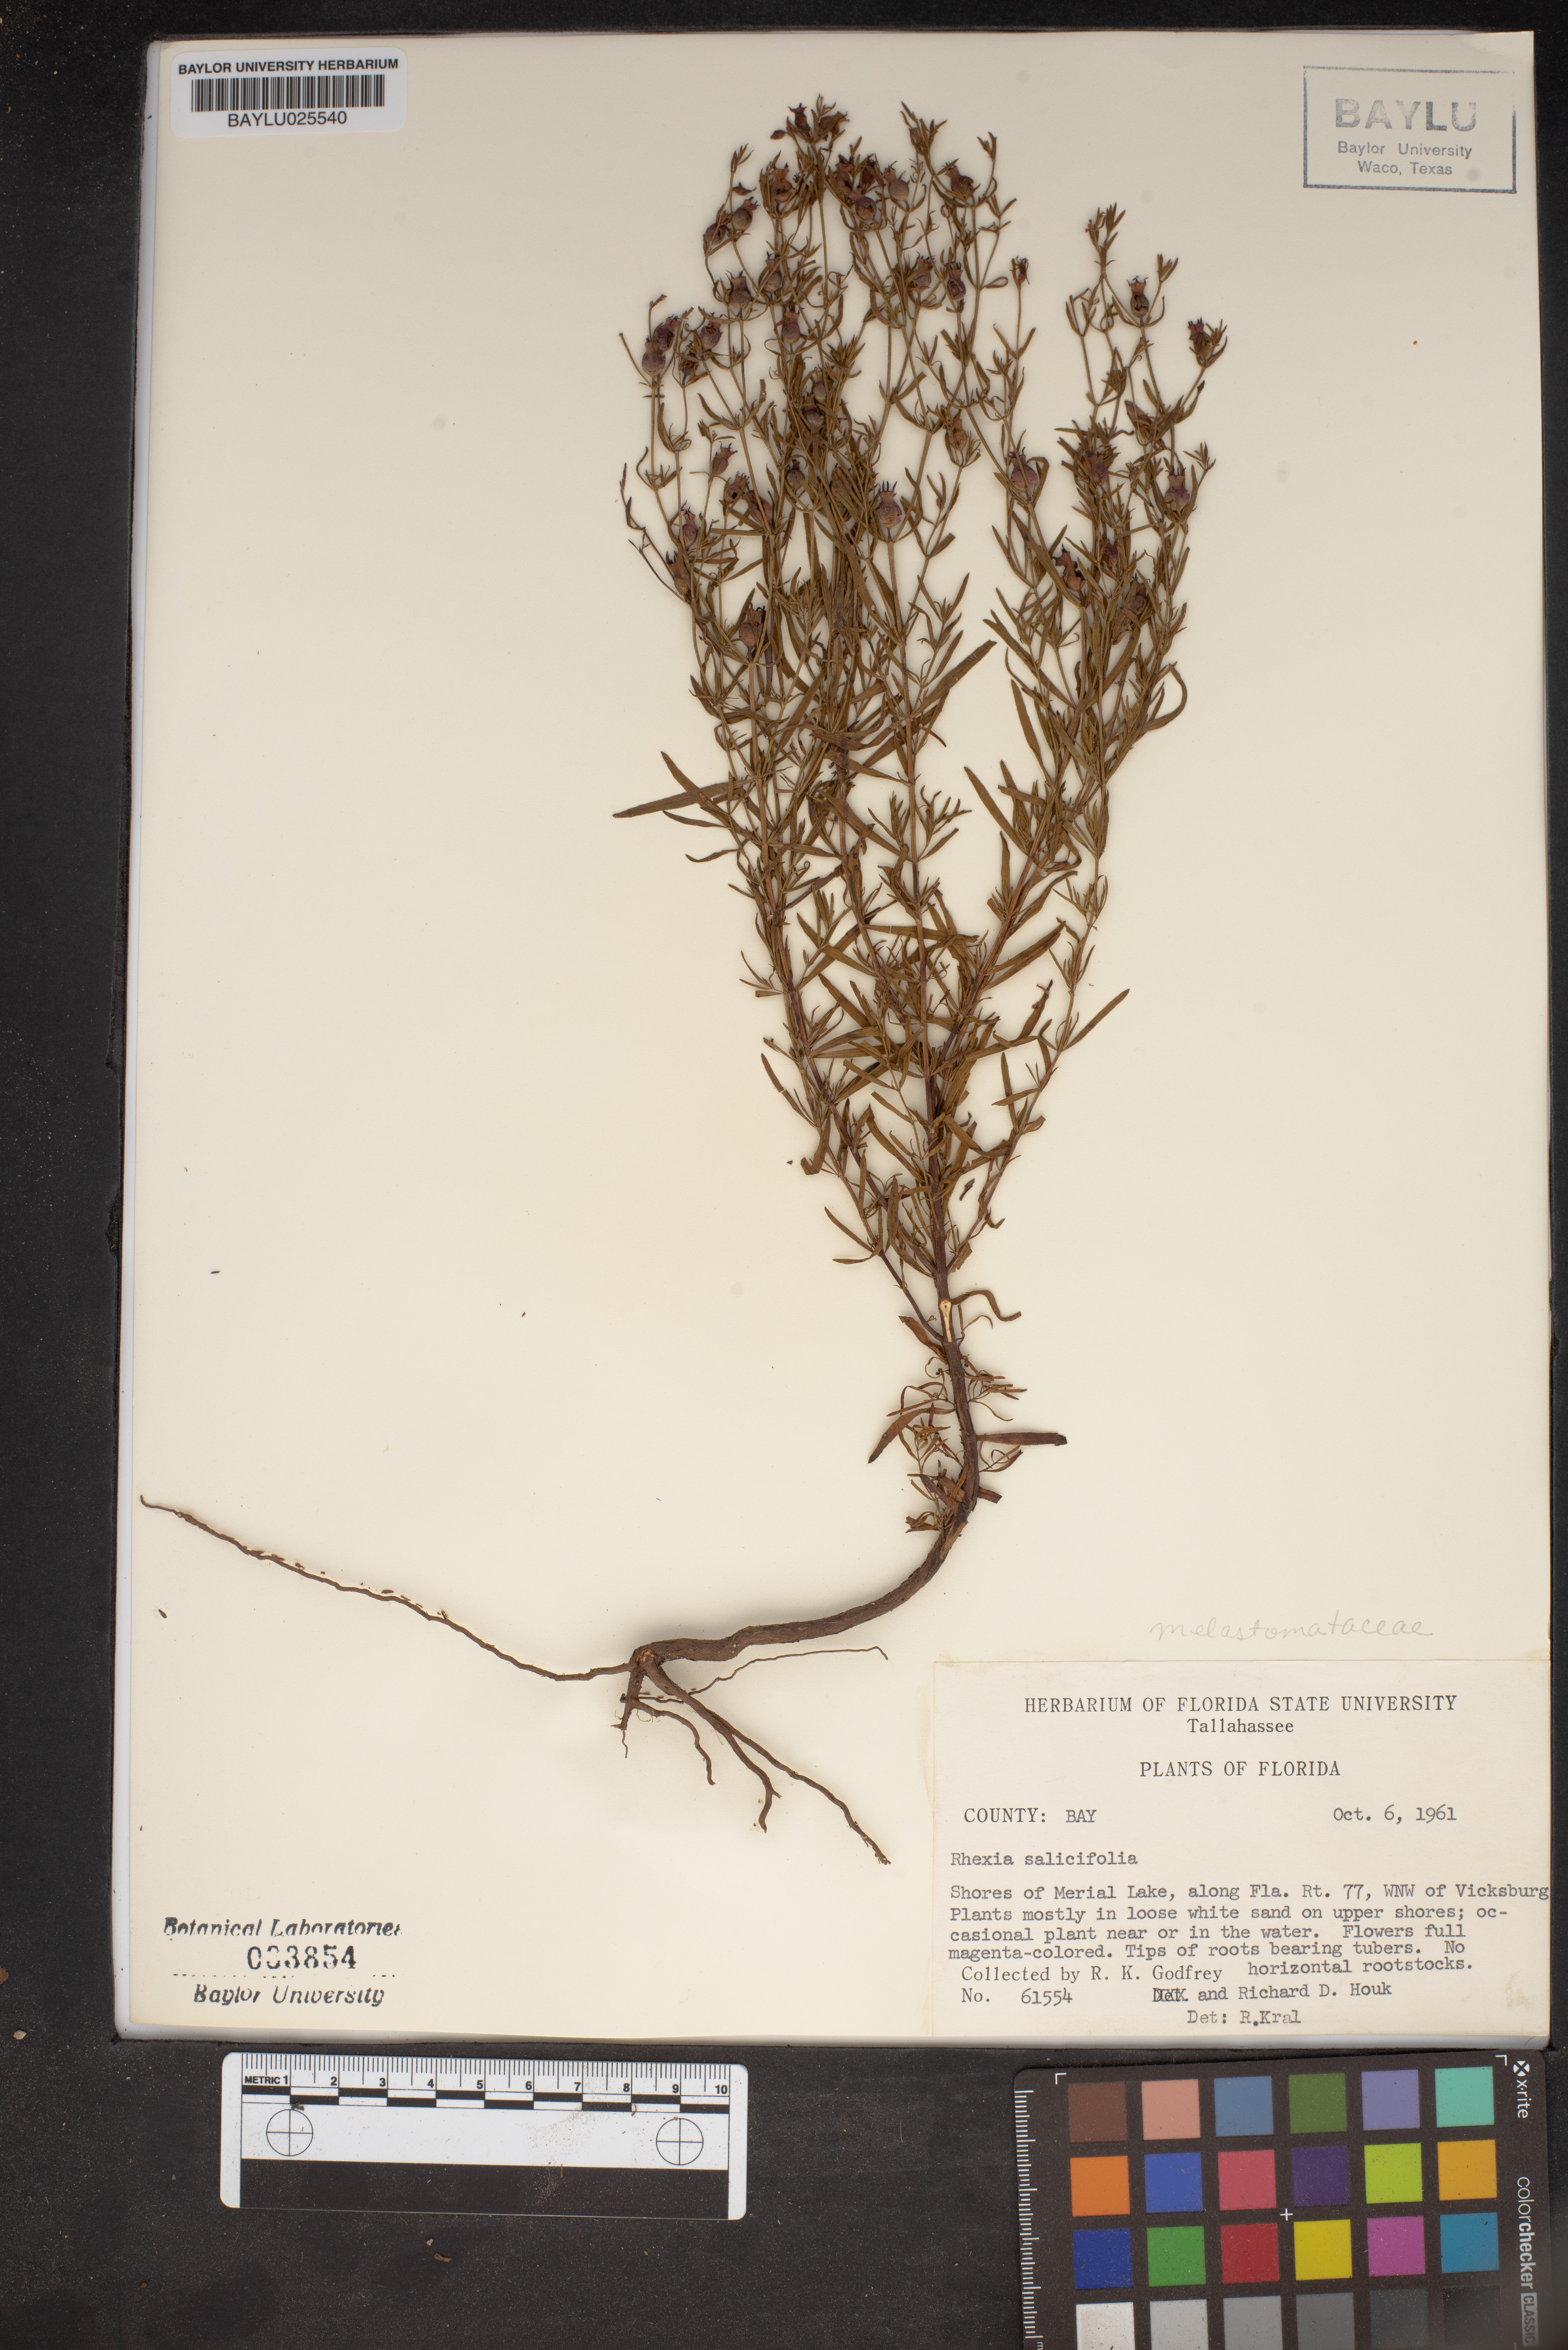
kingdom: Plantae
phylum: Tracheophyta
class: Magnoliopsida
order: Myrtales
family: Melastomataceae
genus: Rhexia
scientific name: Rhexia salicifolia
